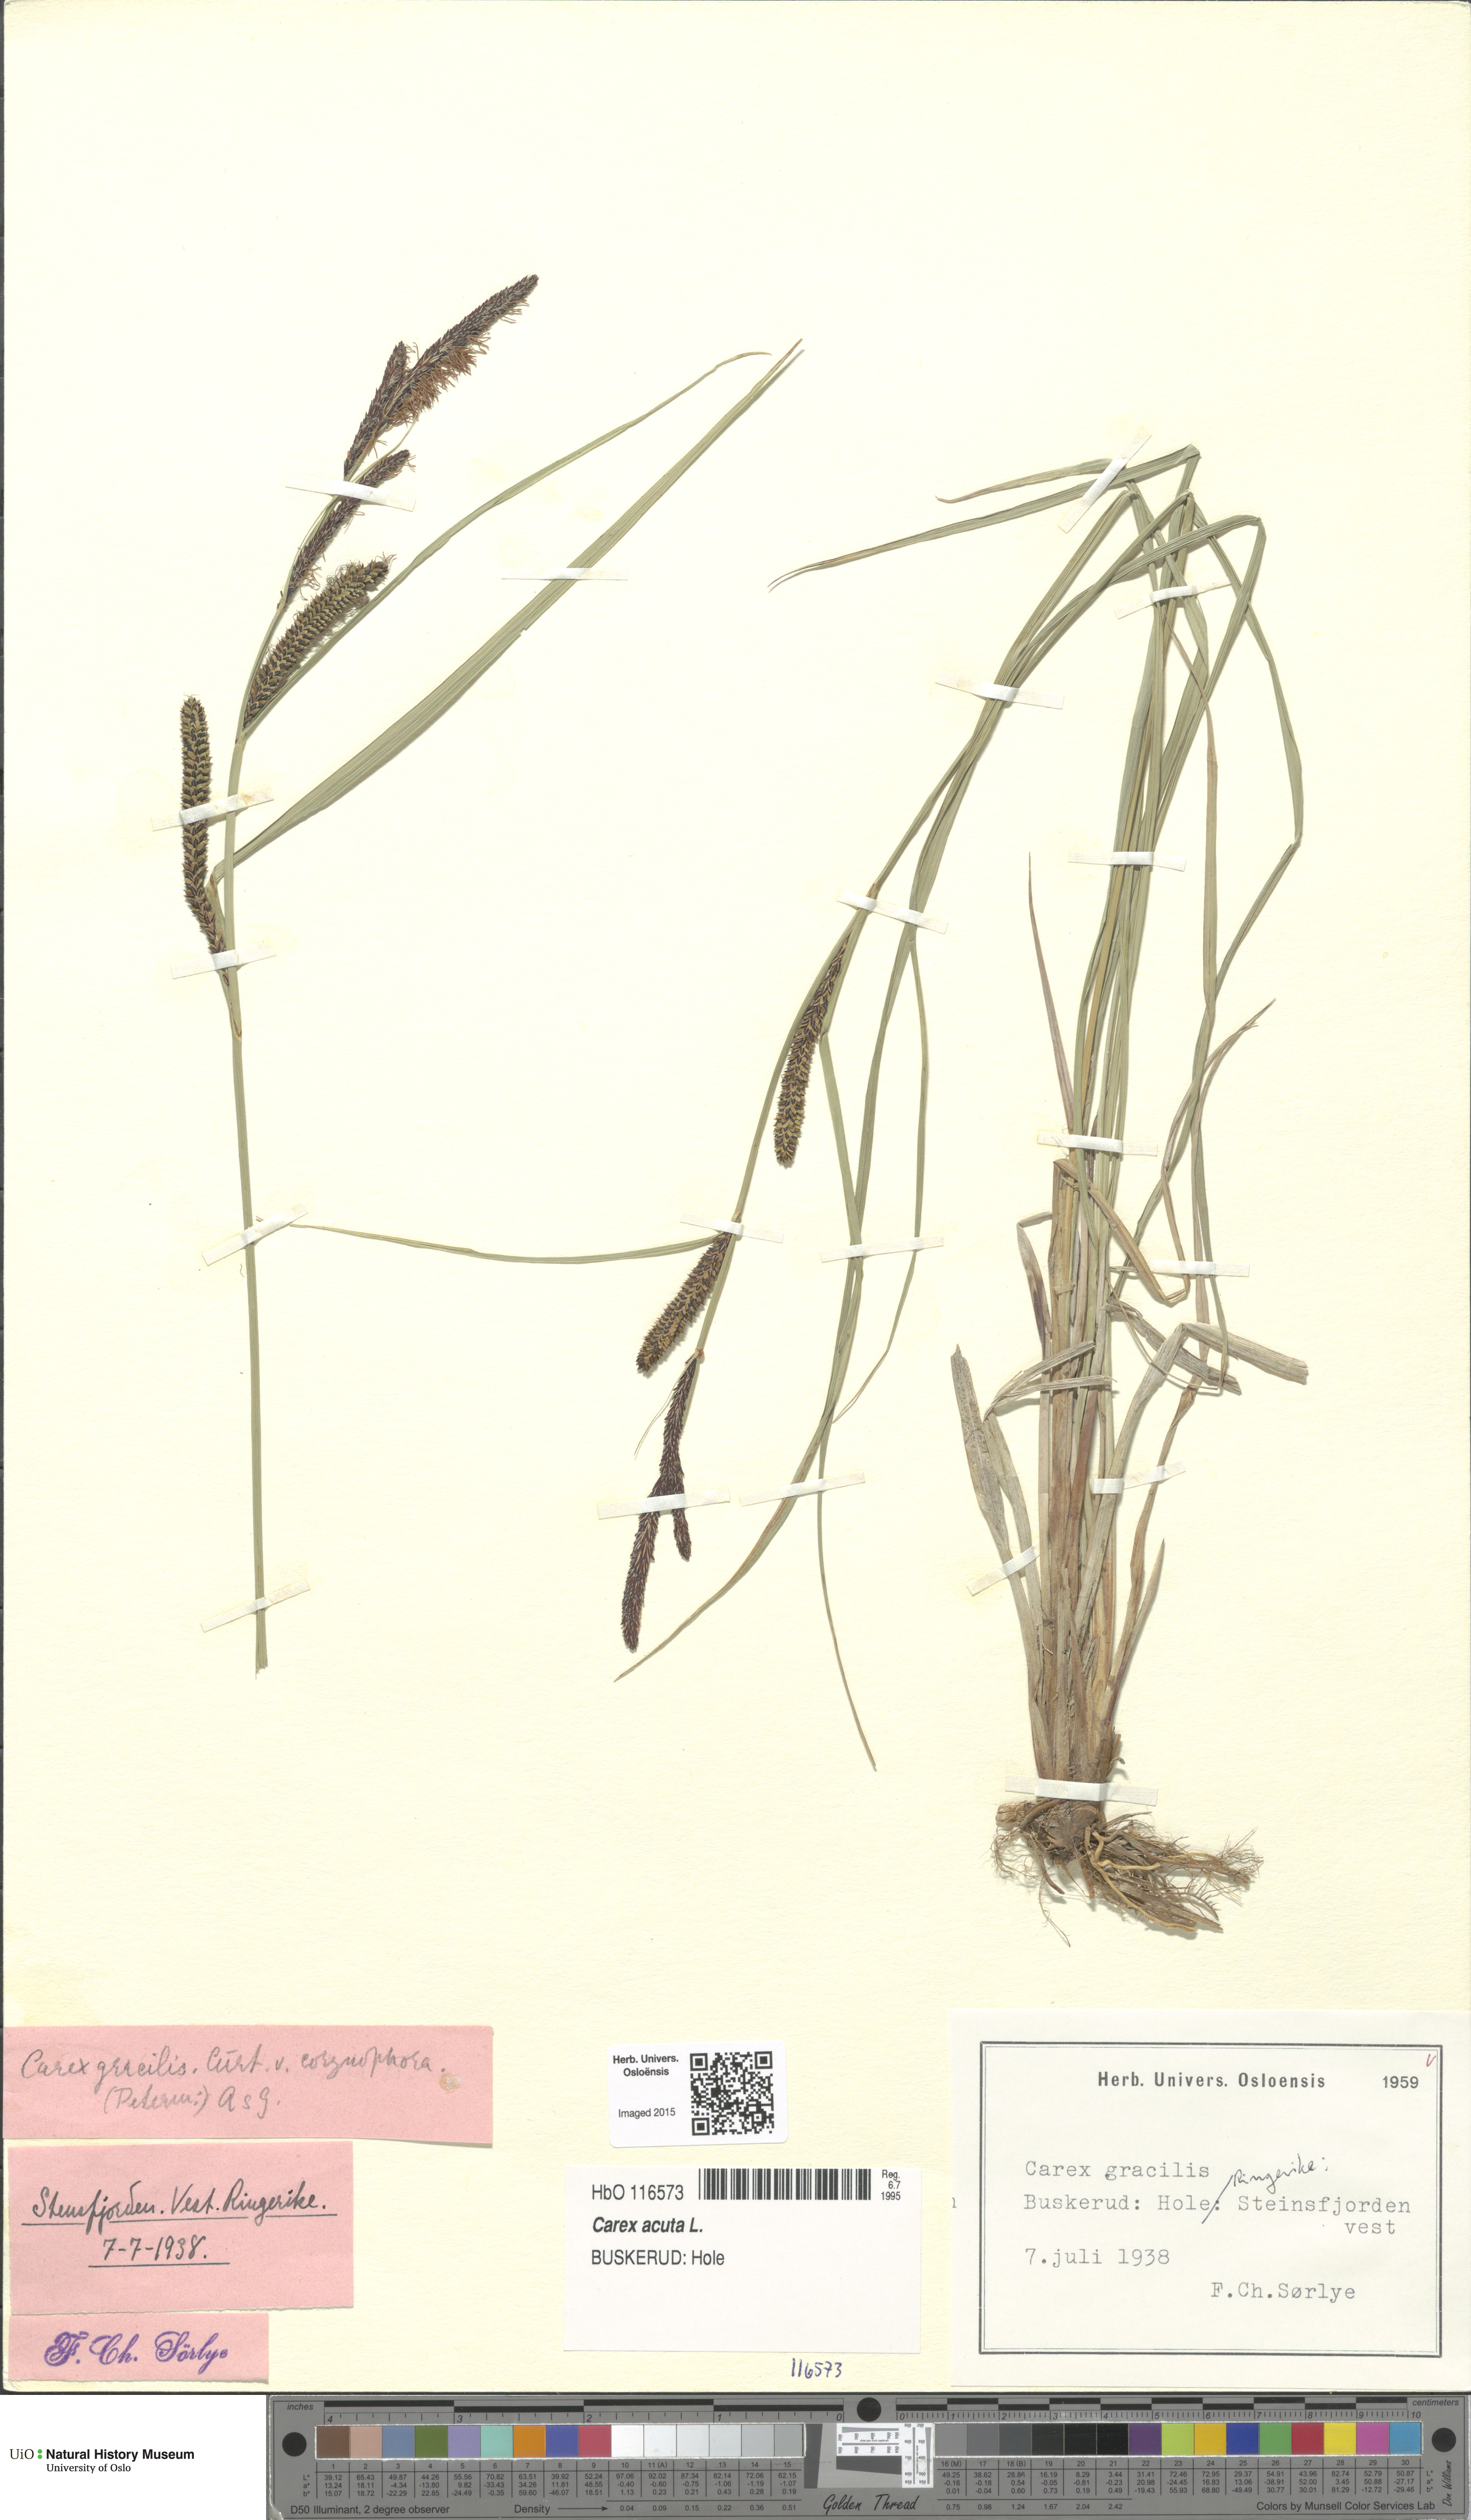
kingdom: Plantae
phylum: Tracheophyta
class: Liliopsida
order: Poales
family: Cyperaceae
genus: Carex
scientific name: Carex acuta
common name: Slender tufted-sedge
